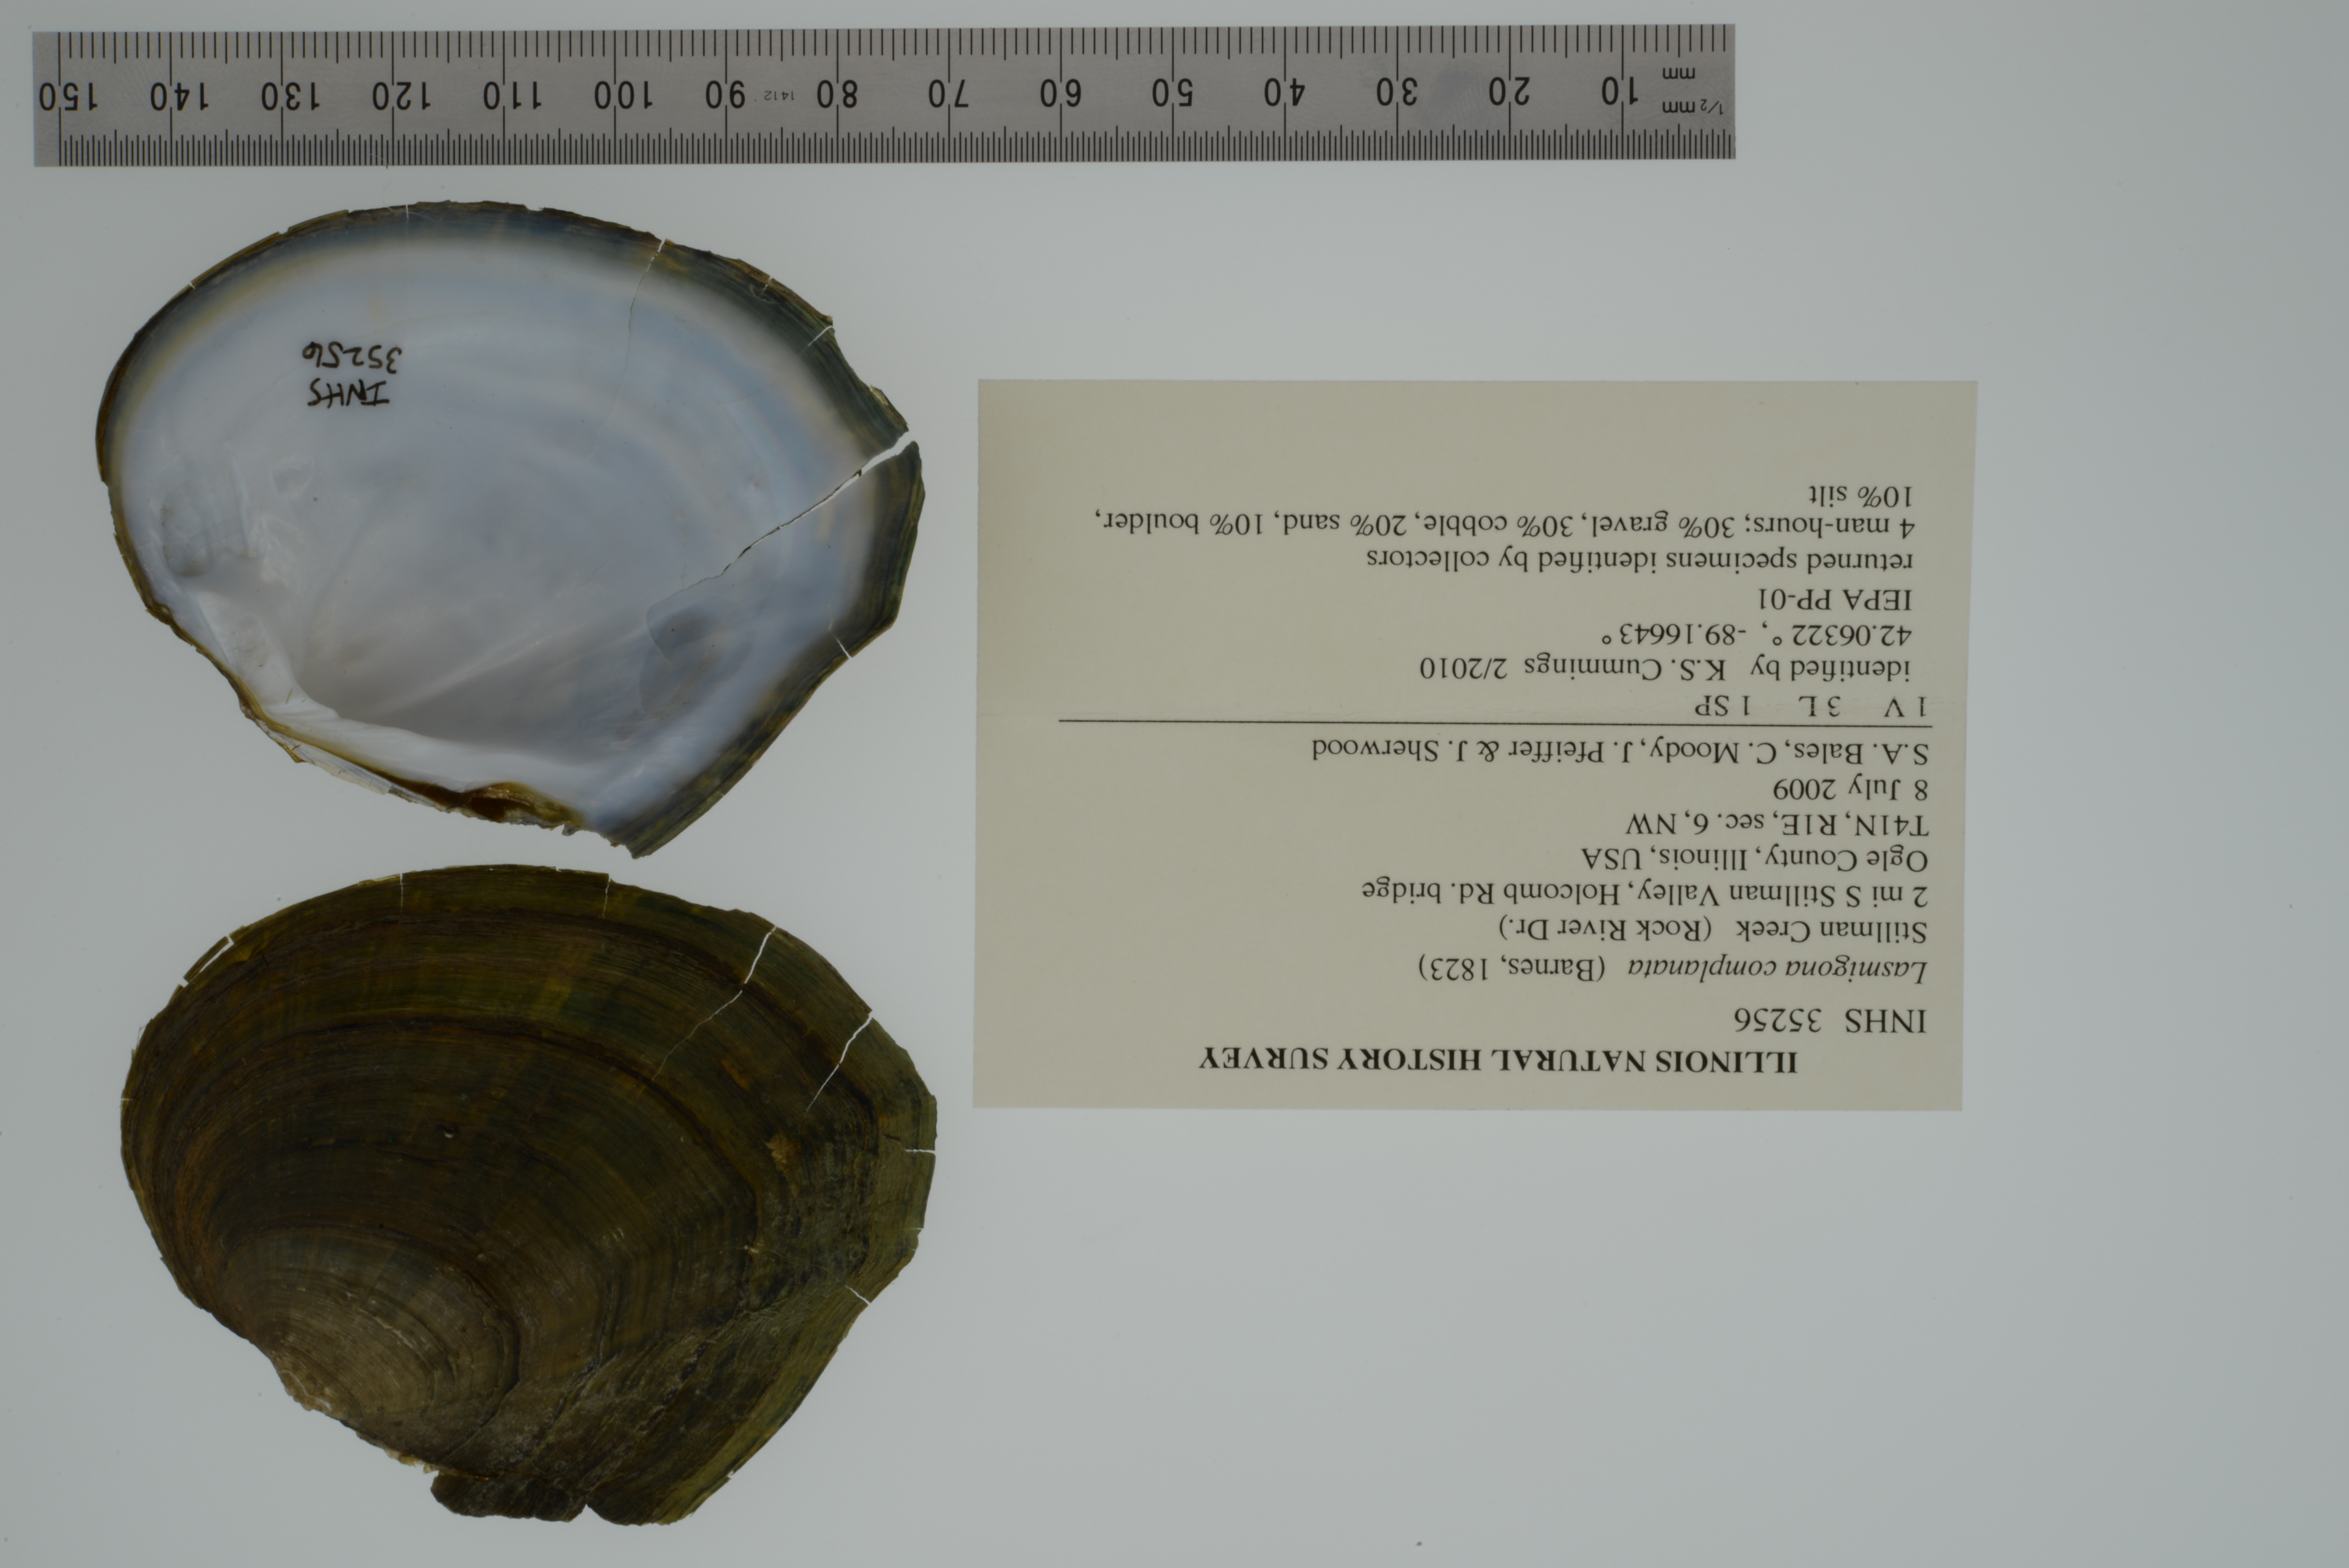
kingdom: Animalia
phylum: Mollusca
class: Bivalvia
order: Unionida
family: Unionidae
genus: Lasmigona
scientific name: Lasmigona complanata
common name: White heelsplitter
